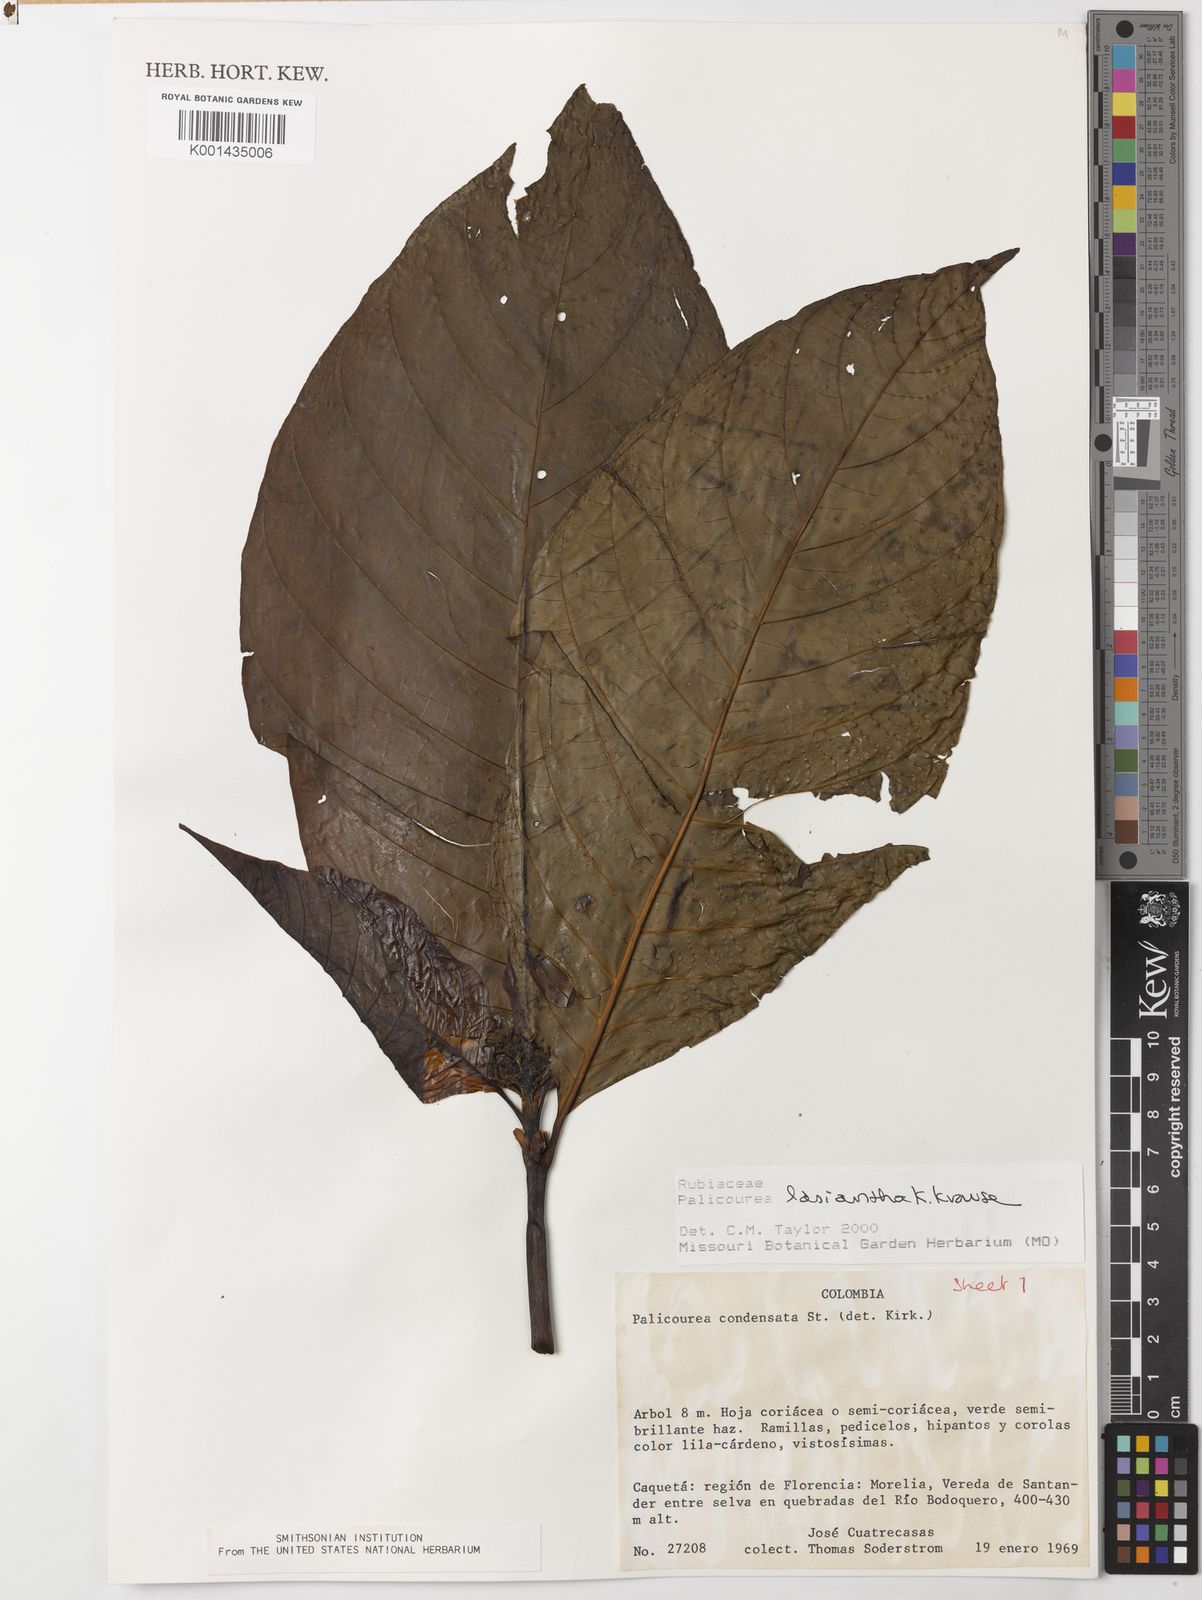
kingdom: Plantae
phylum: Tracheophyta
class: Magnoliopsida
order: Gentianales
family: Rubiaceae
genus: Palicourea
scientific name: Palicourea lasiantha
